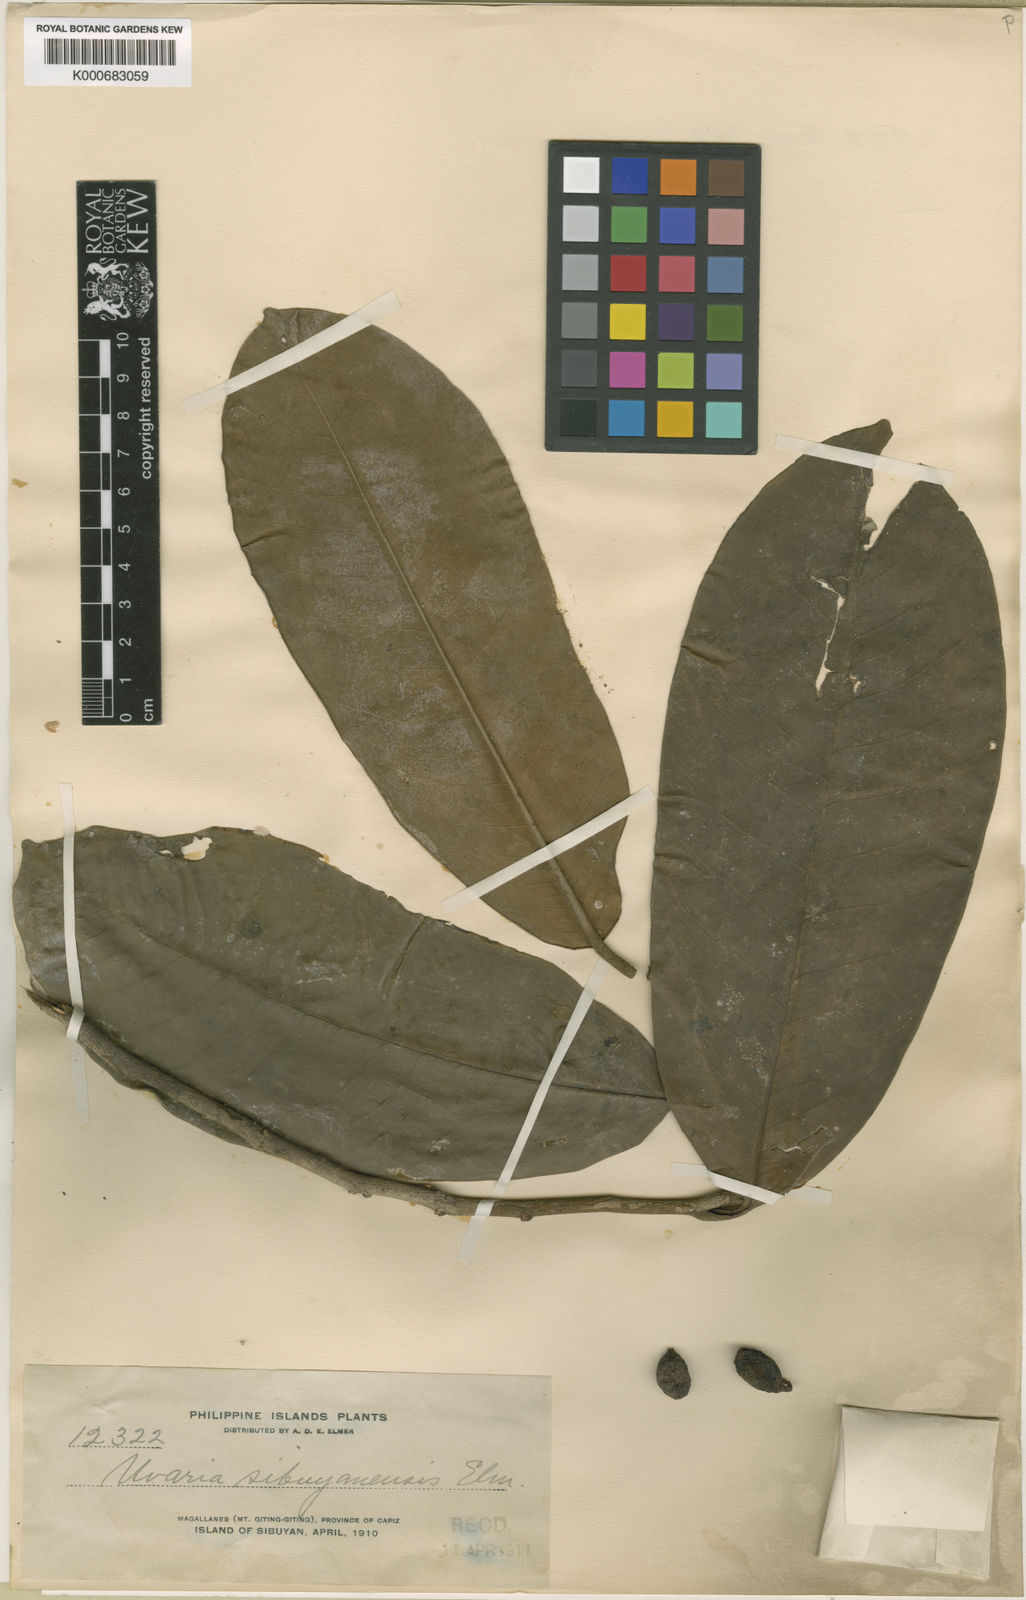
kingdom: Plantae
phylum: Tracheophyta
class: Magnoliopsida
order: Magnoliales
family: Annonaceae
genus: Goniothalamus
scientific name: Goniothalamus sibuyanensis
